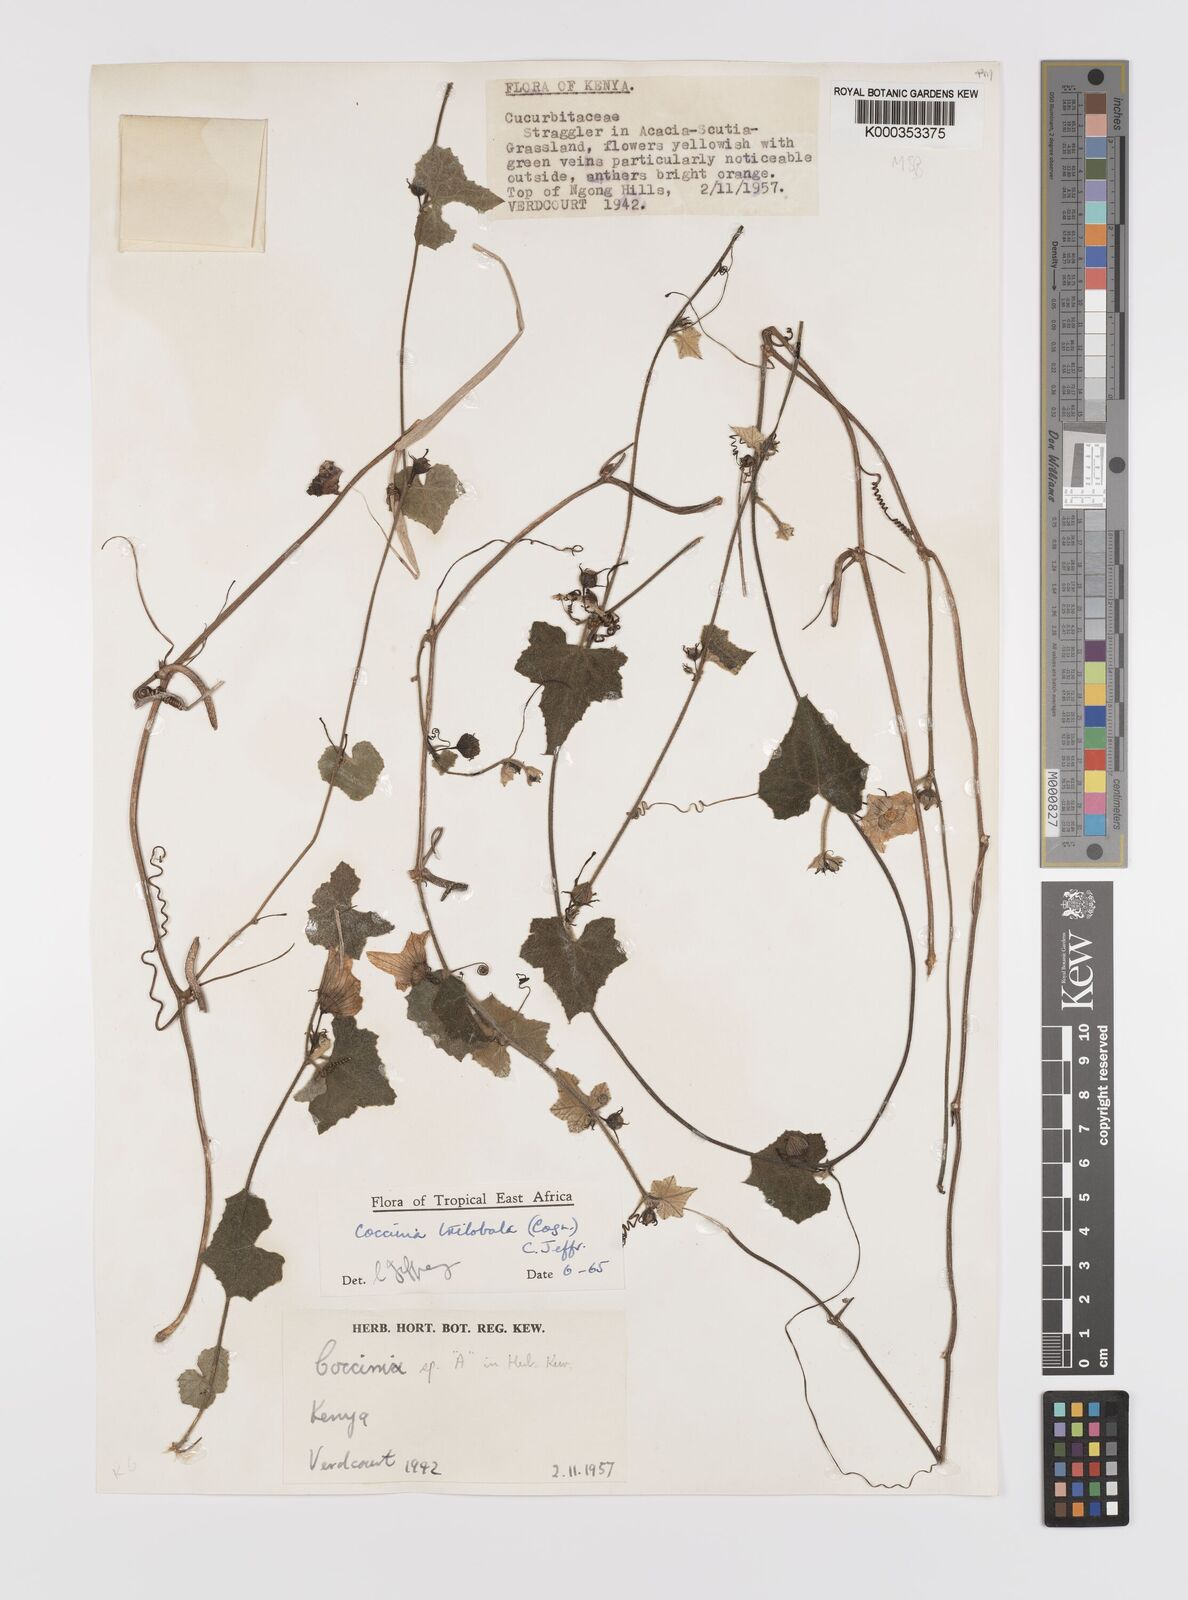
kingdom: Plantae
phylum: Tracheophyta
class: Magnoliopsida
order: Cucurbitales
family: Cucurbitaceae
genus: Coccinia
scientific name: Coccinia trilobata
